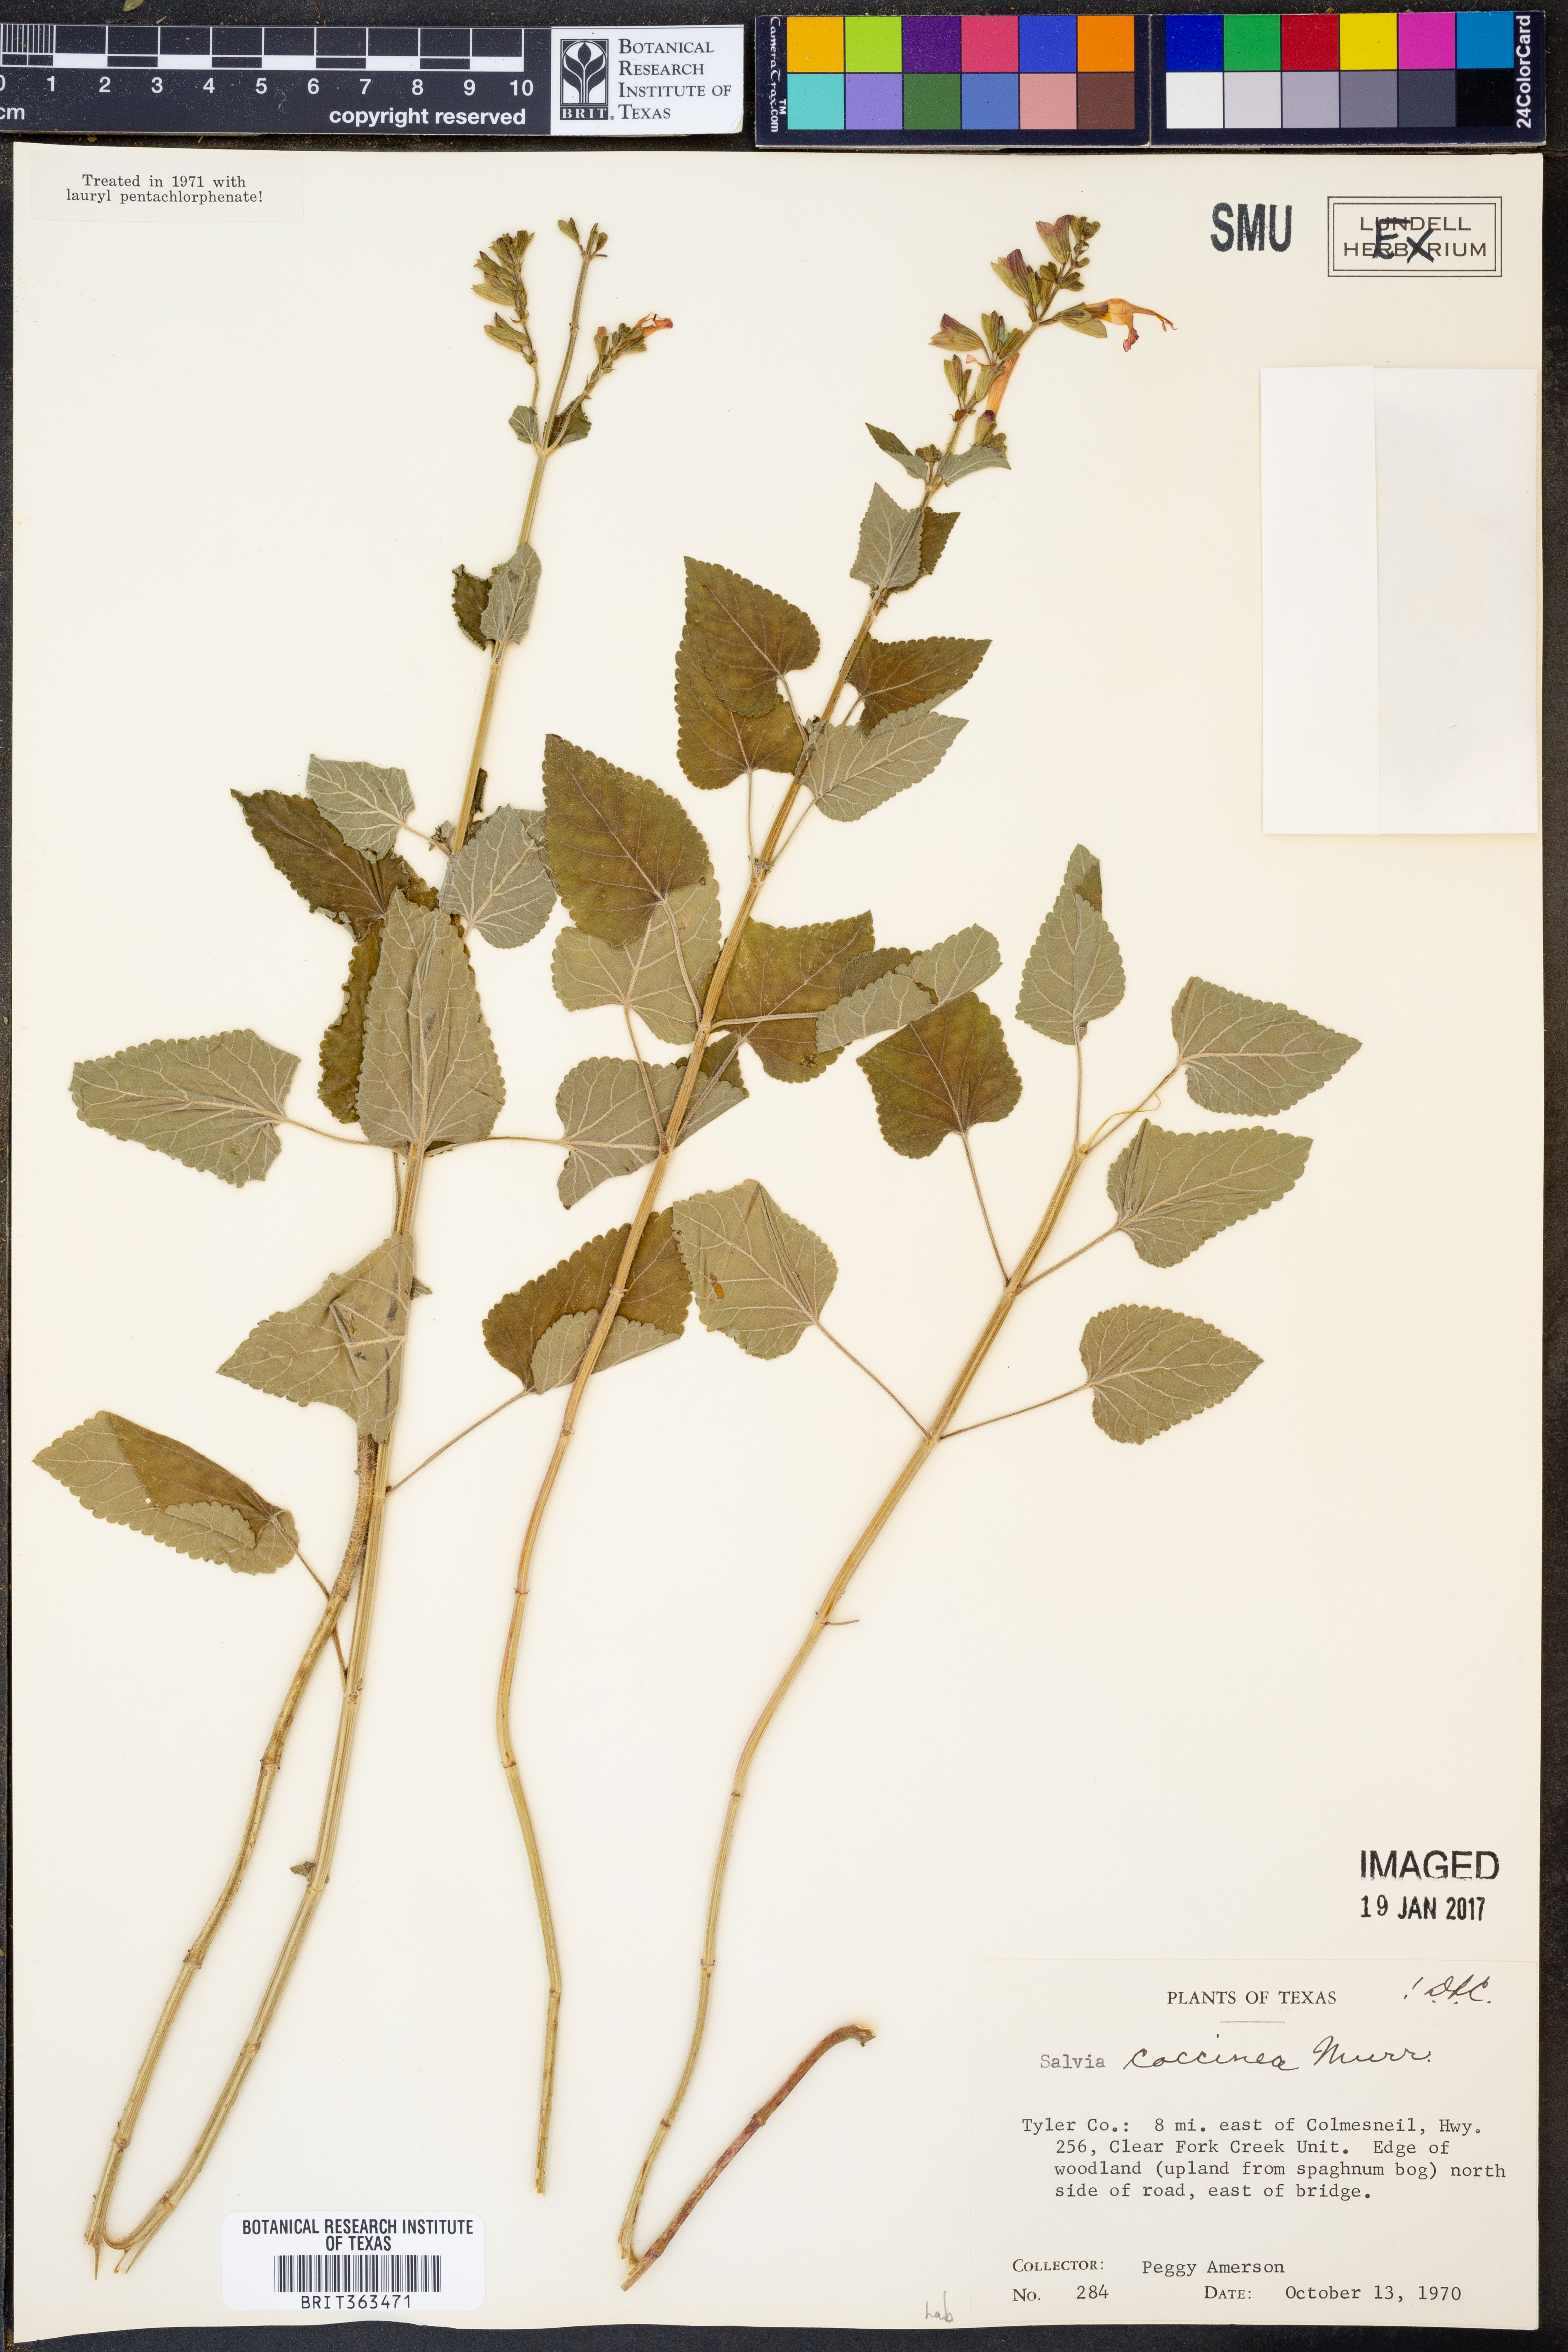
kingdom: Plantae
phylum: Tracheophyta
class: Magnoliopsida
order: Lamiales
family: Lamiaceae
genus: Salvia
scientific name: Salvia coccinea
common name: Blood sage
